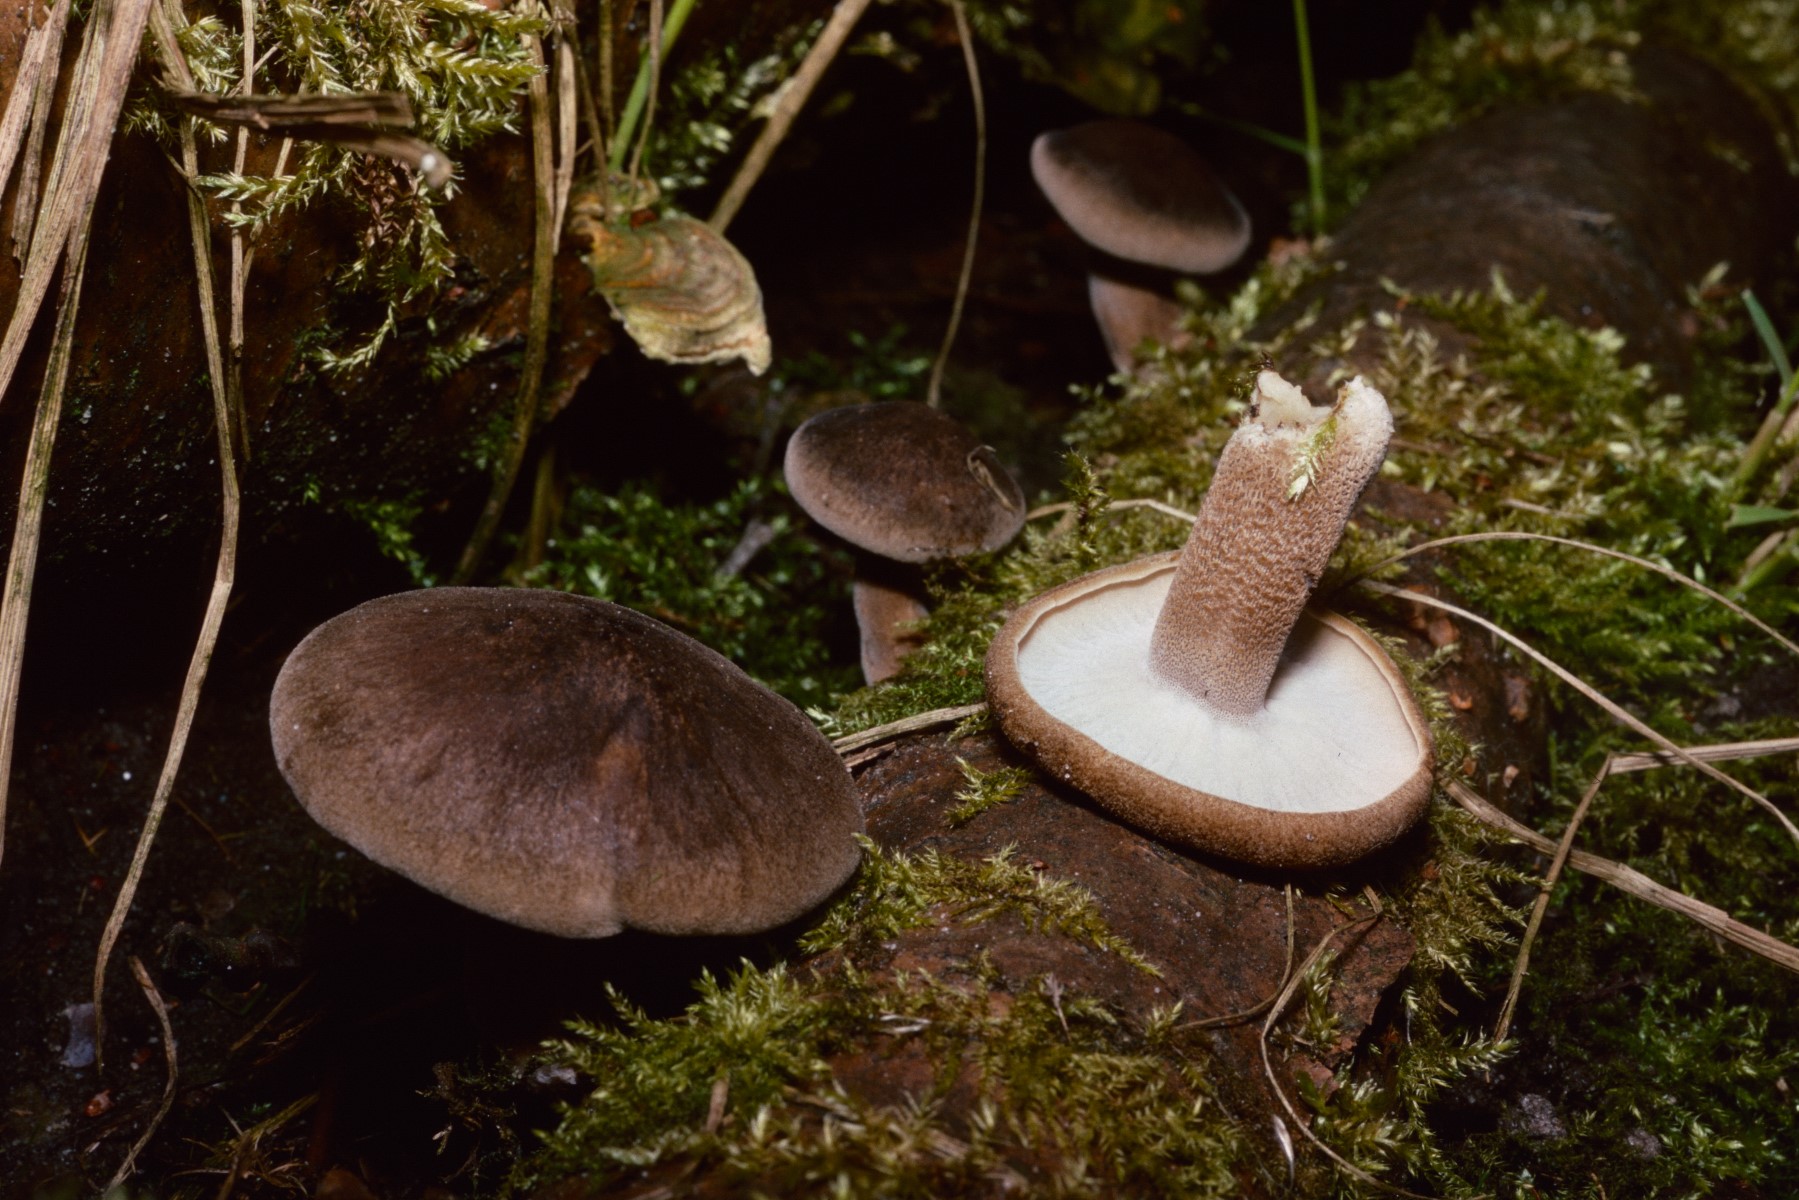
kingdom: Fungi
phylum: Basidiomycota
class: Agaricomycetes
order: Polyporales
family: Polyporaceae
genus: Lentinus
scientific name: Lentinus substrictus
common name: forårs-stilkporesvamp
